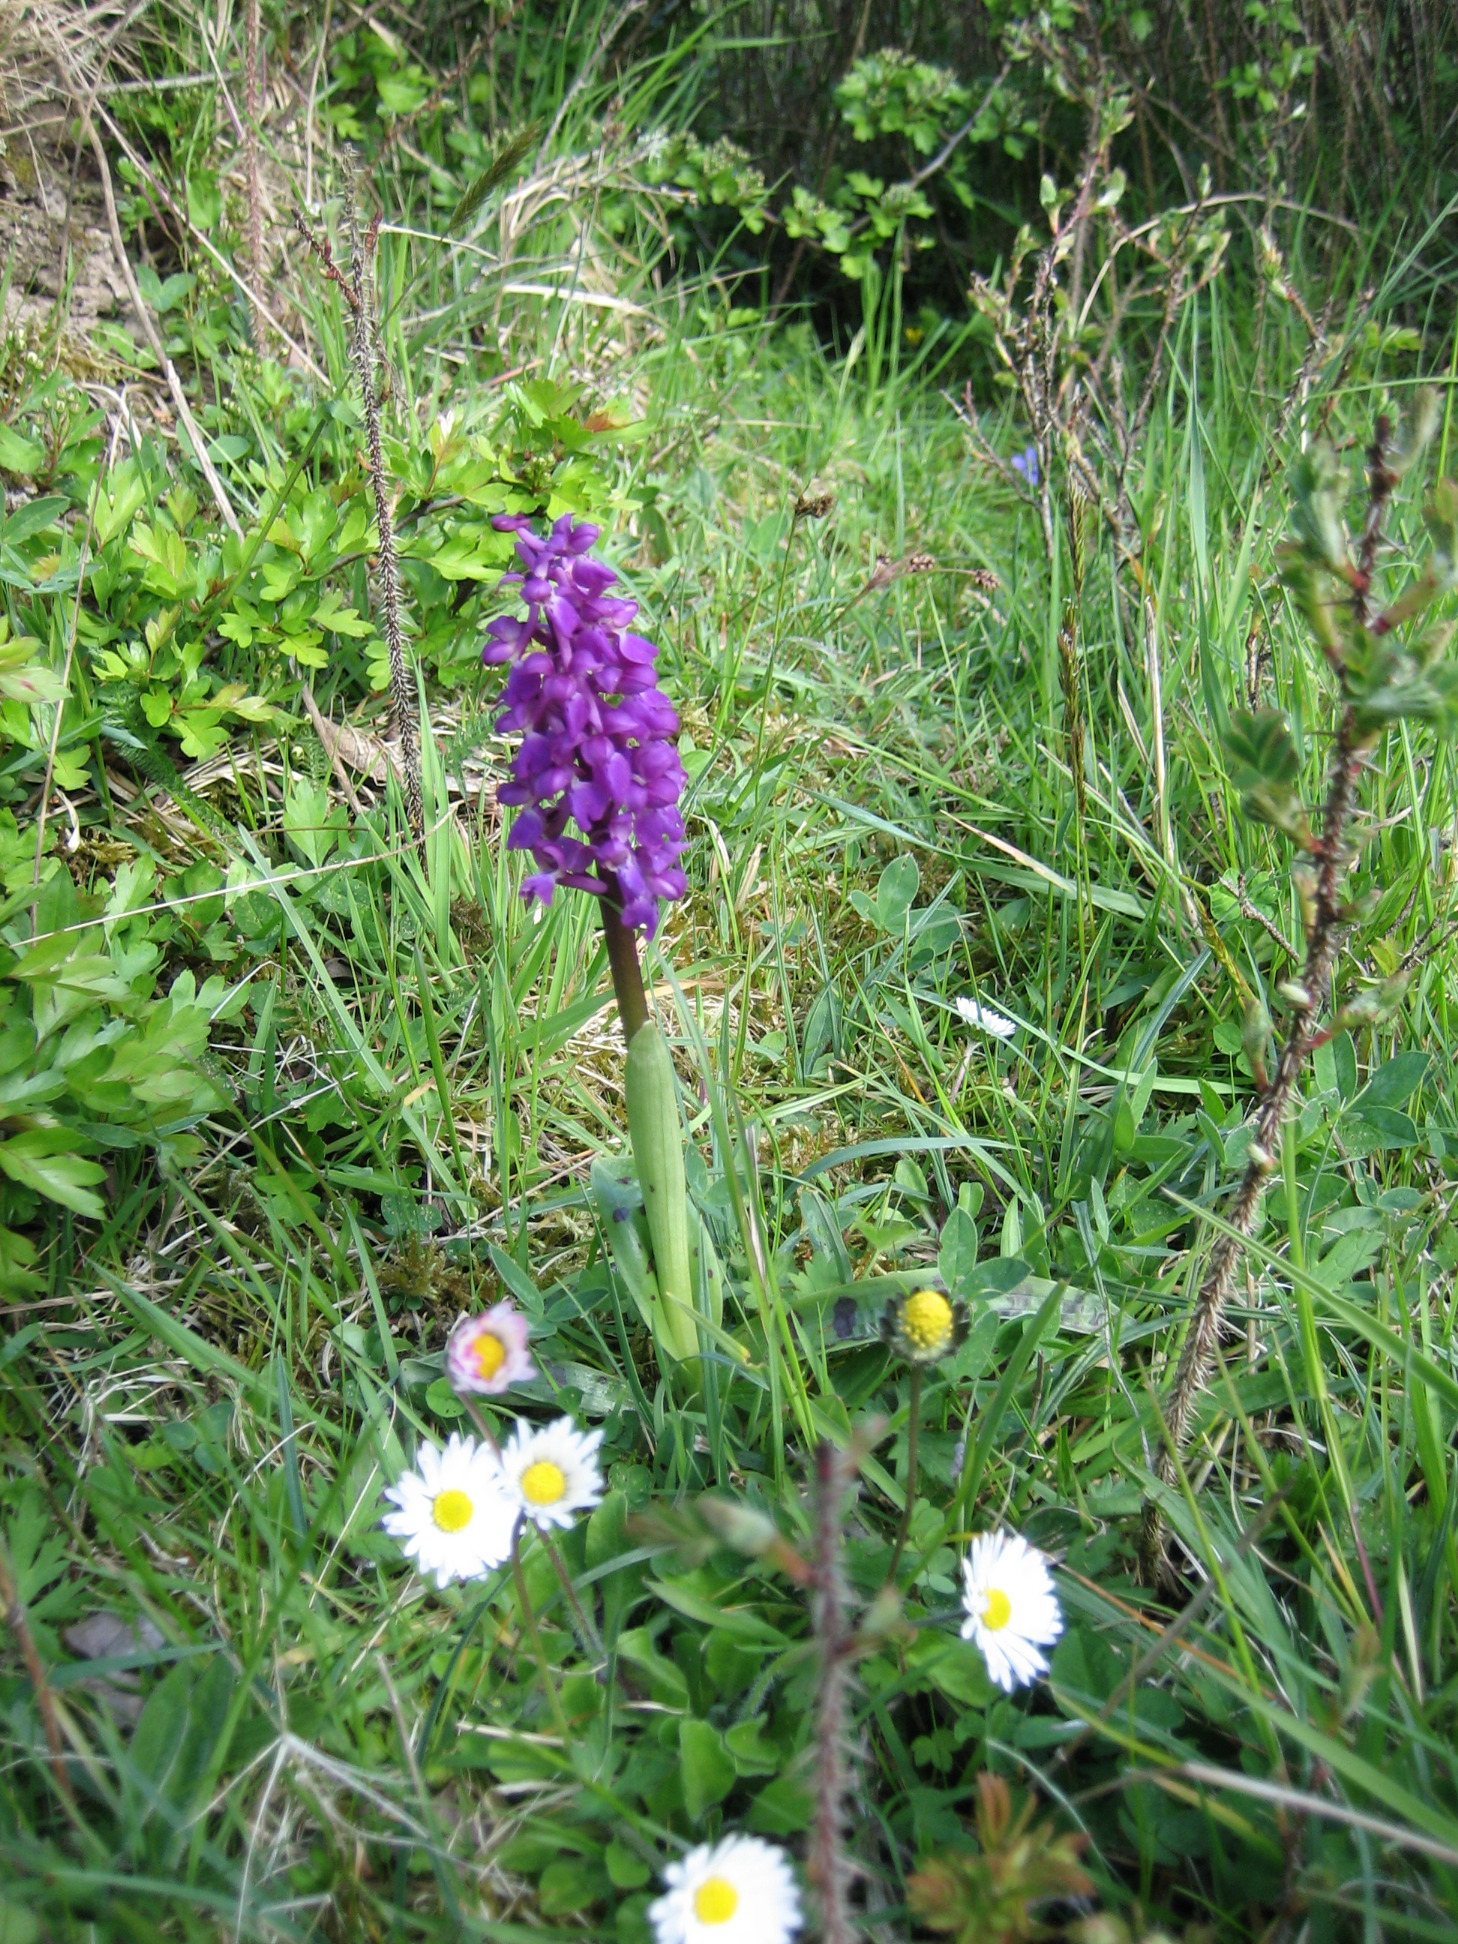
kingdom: Plantae
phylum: Tracheophyta
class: Liliopsida
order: Asparagales
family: Orchidaceae
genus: Orchis
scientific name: Orchis mascula
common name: Tyndakset gøgeurt
